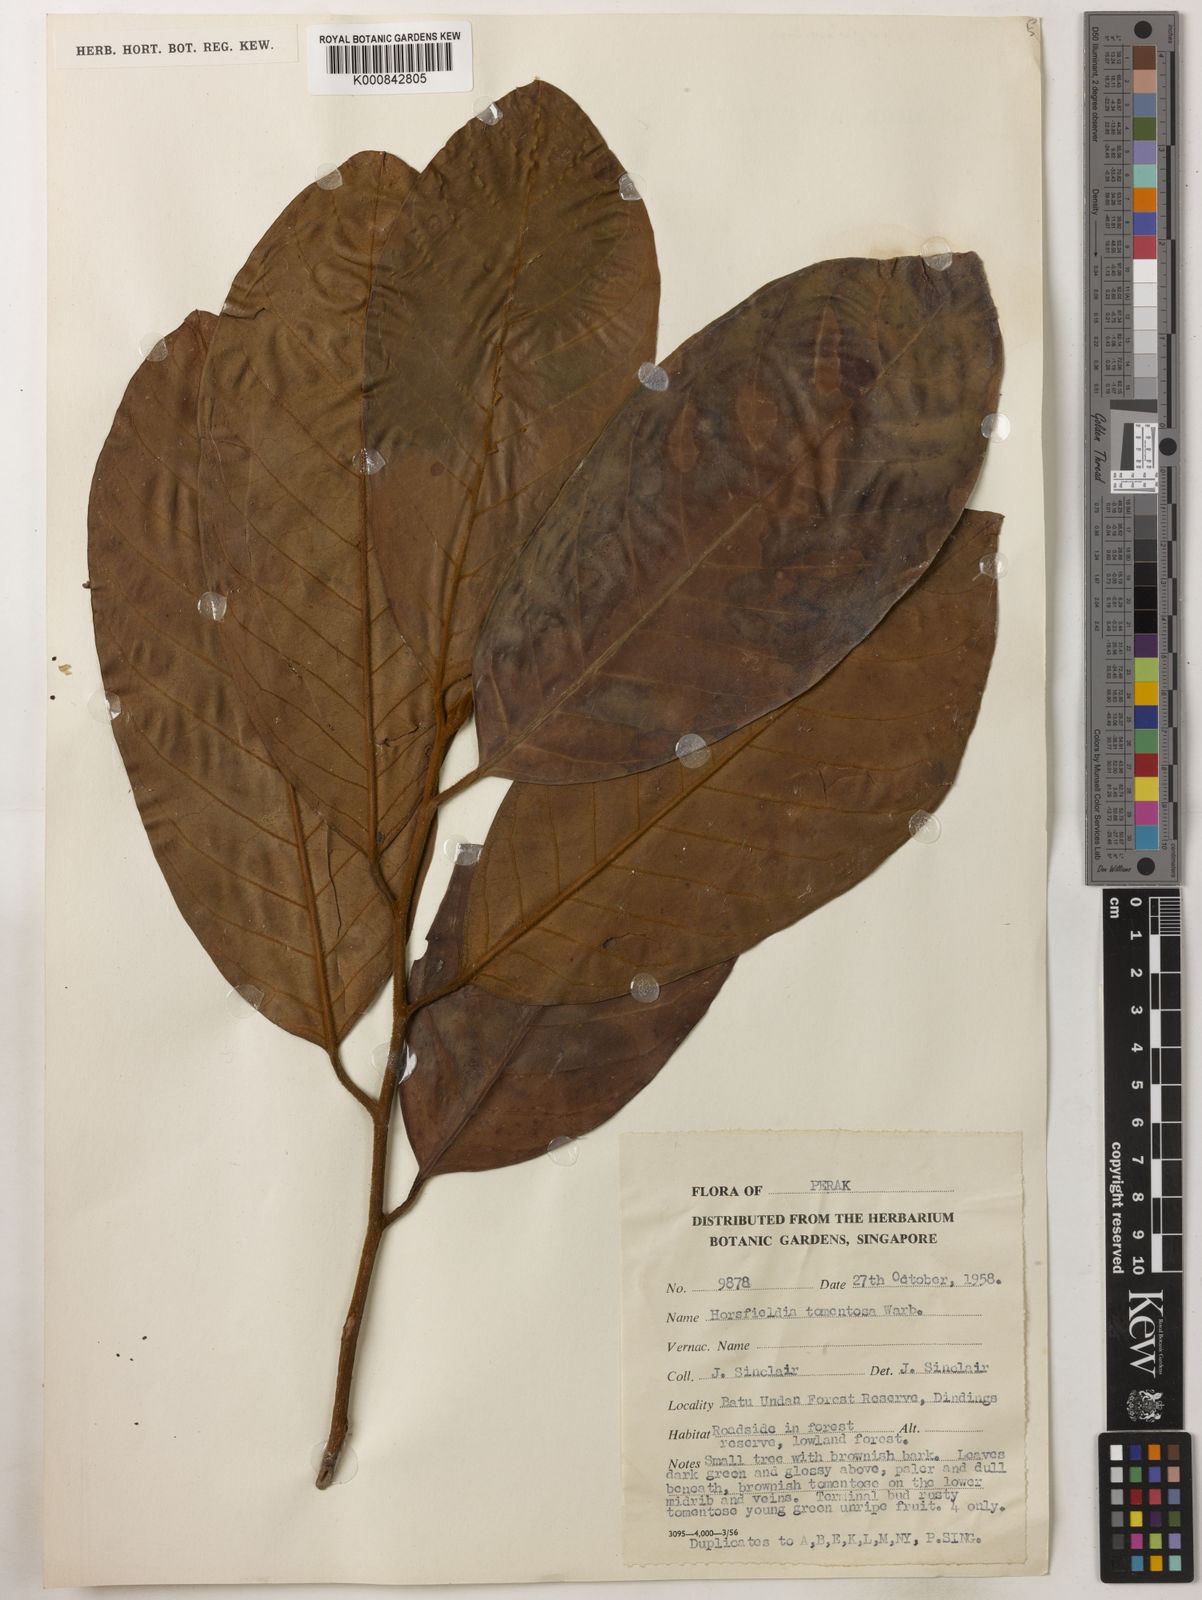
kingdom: Plantae
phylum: Tracheophyta
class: Magnoliopsida
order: Magnoliales
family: Myristicaceae
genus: Horsfieldia
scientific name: Horsfieldia tomentosa
